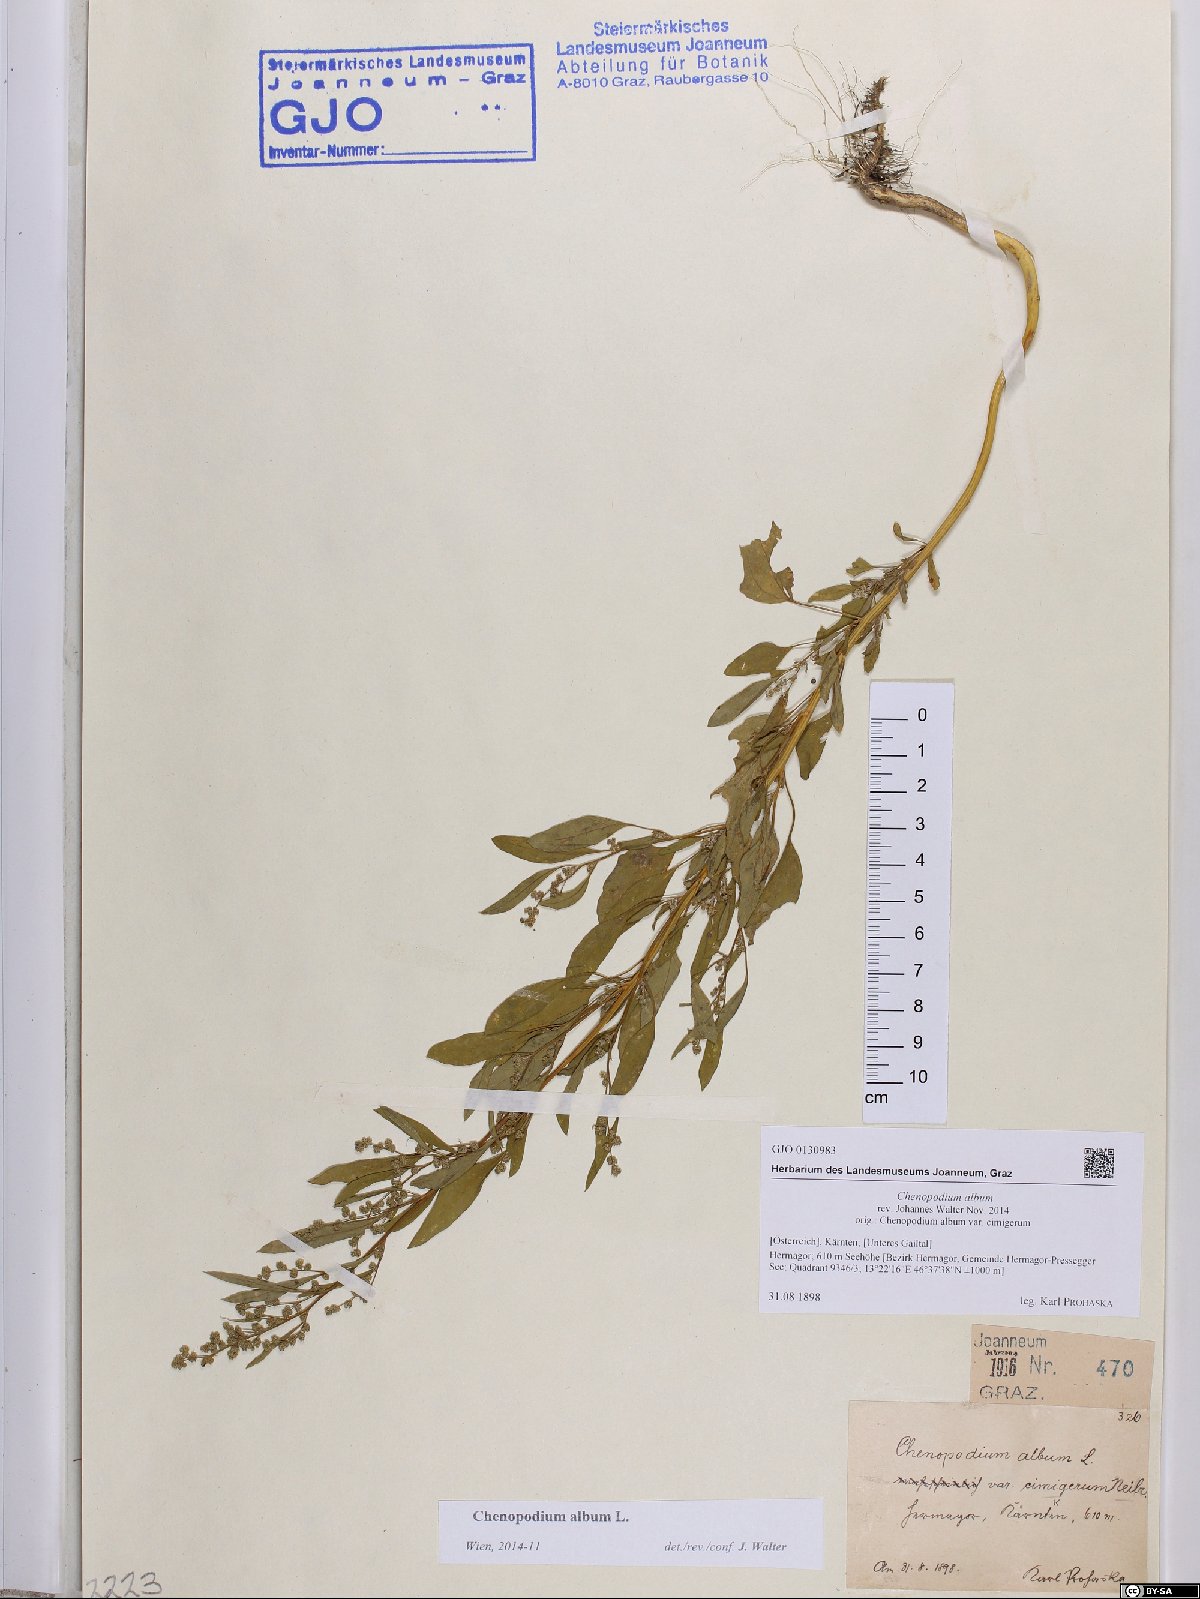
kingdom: Plantae
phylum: Tracheophyta
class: Magnoliopsida
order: Caryophyllales
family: Amaranthaceae
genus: Chenopodium
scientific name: Chenopodium album
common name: Fat-hen
